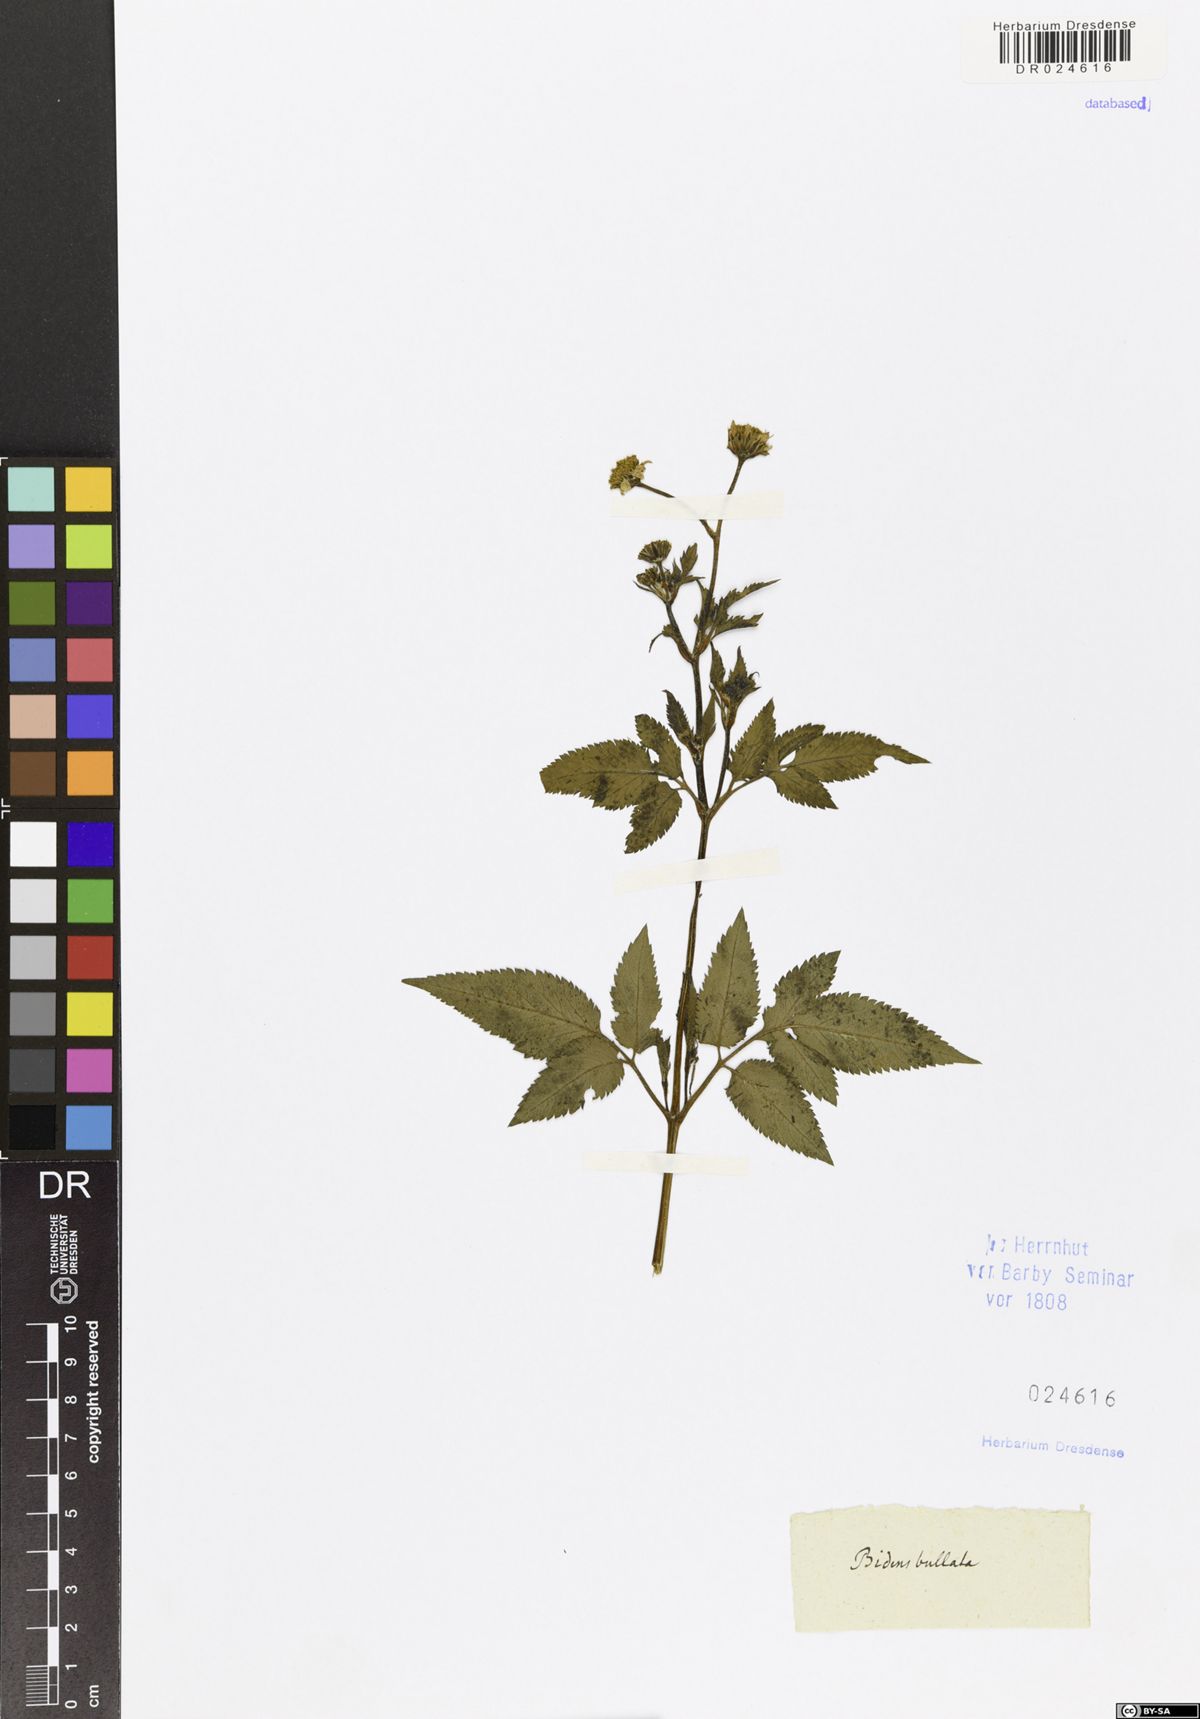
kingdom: Plantae
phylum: Tracheophyta
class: Magnoliopsida
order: Asterales
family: Asteraceae
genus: Bidens
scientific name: Bidens frondosa
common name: Beggarticks
